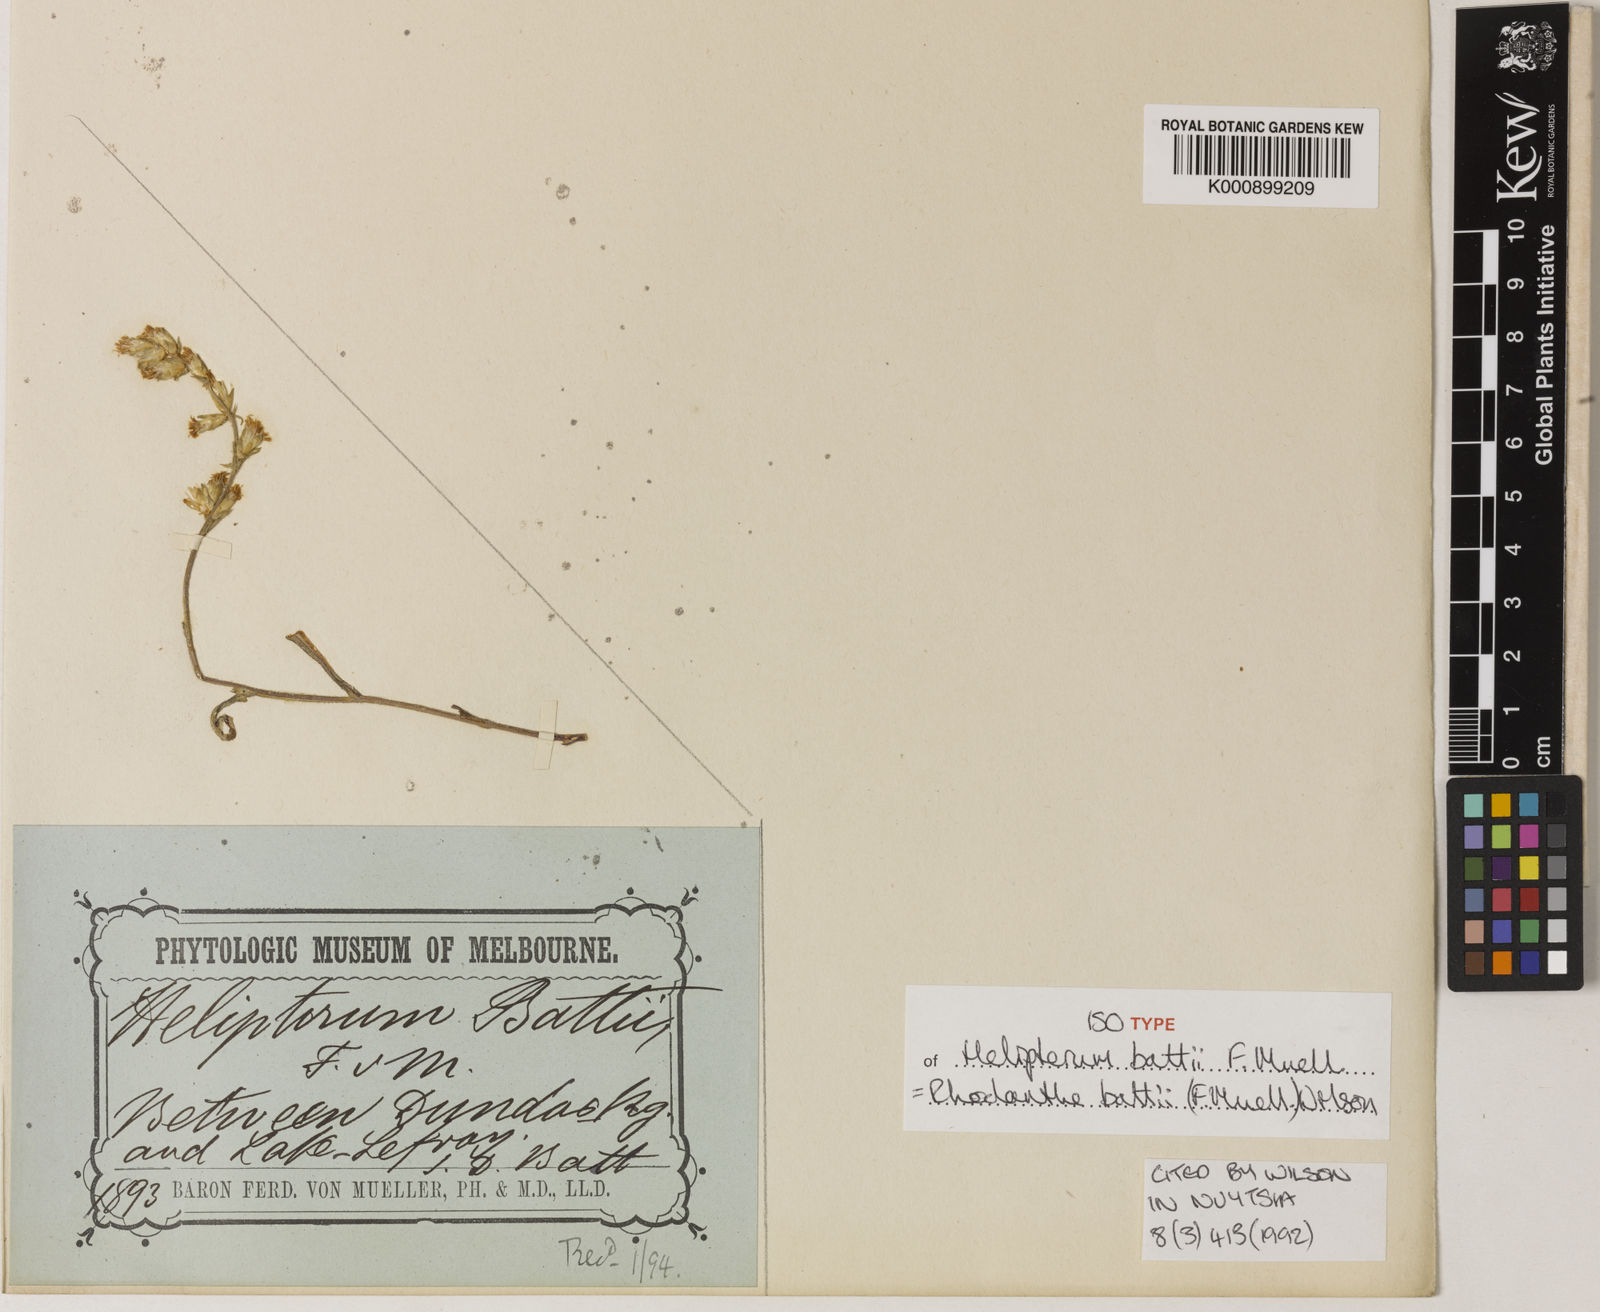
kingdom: Plantae
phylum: Tracheophyta
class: Magnoliopsida
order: Asterales
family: Asteraceae
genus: Rhodanthe
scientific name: Rhodanthe battii
